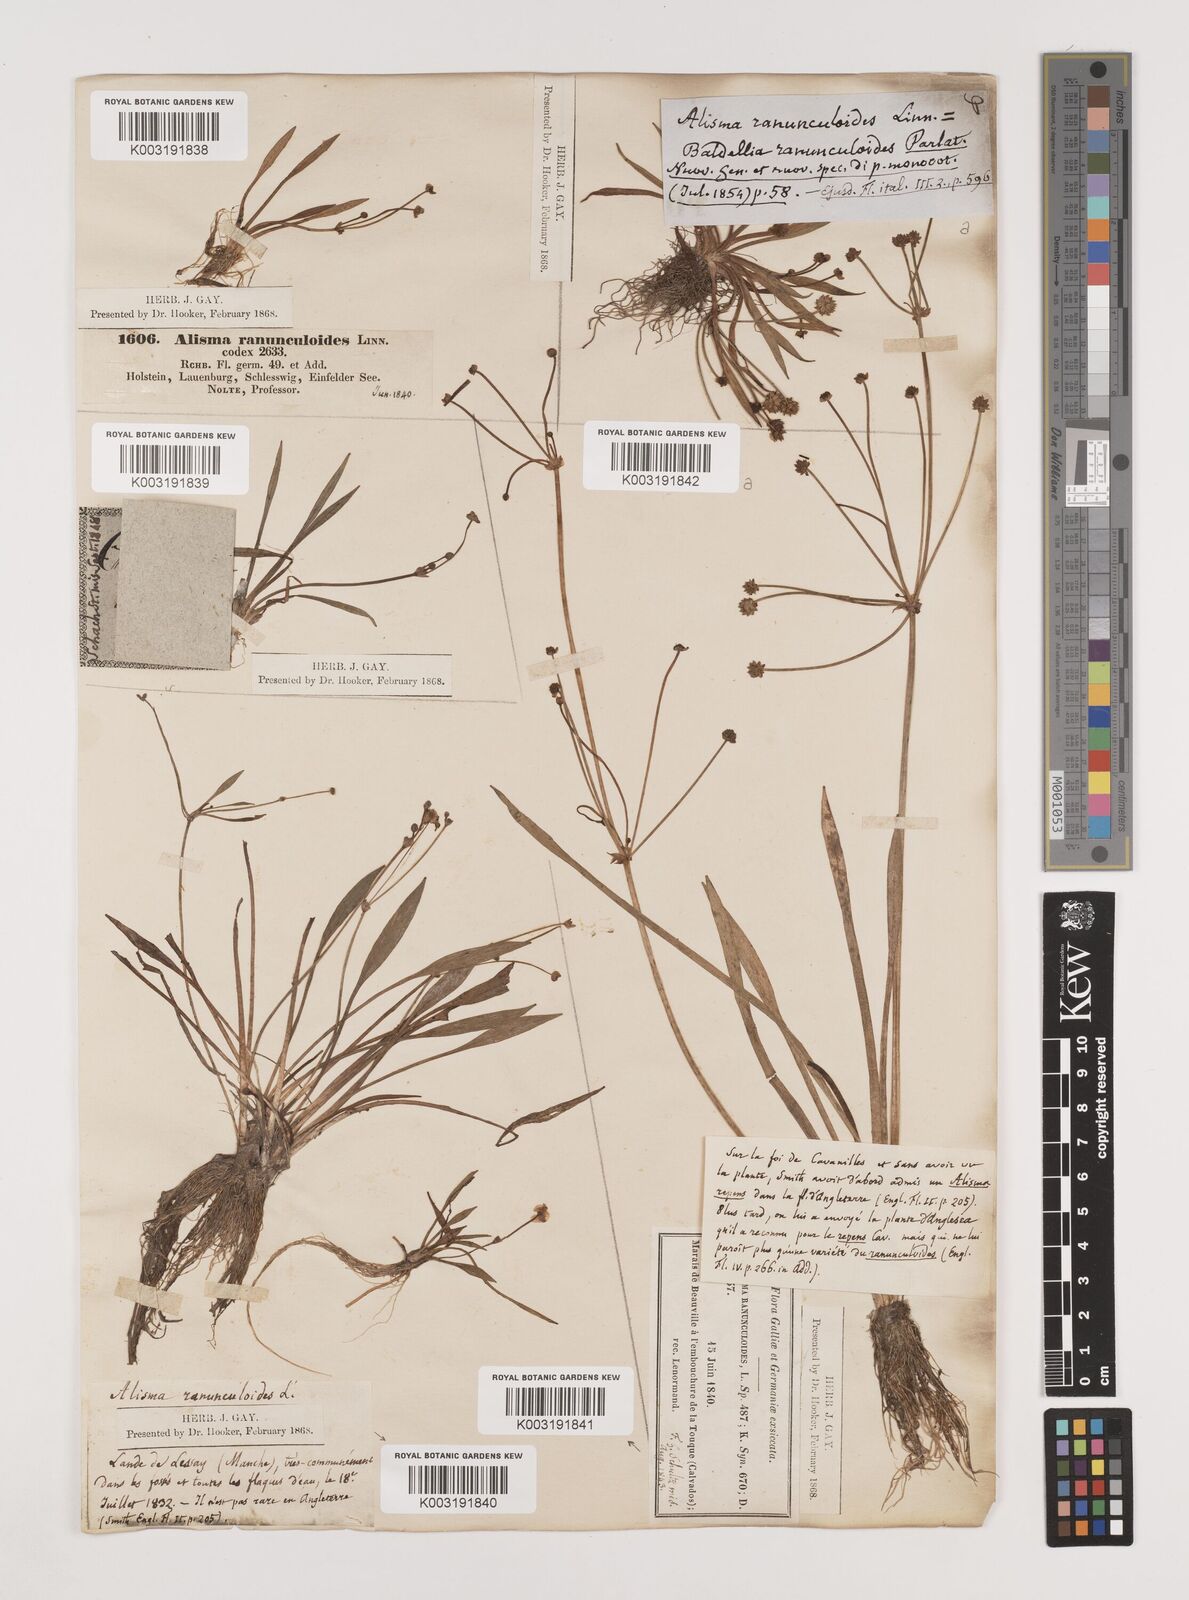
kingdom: Plantae
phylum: Tracheophyta
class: Liliopsida
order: Alismatales
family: Alismataceae
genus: Baldellia
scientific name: Baldellia ranunculoides
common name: Lesser water-plantain
